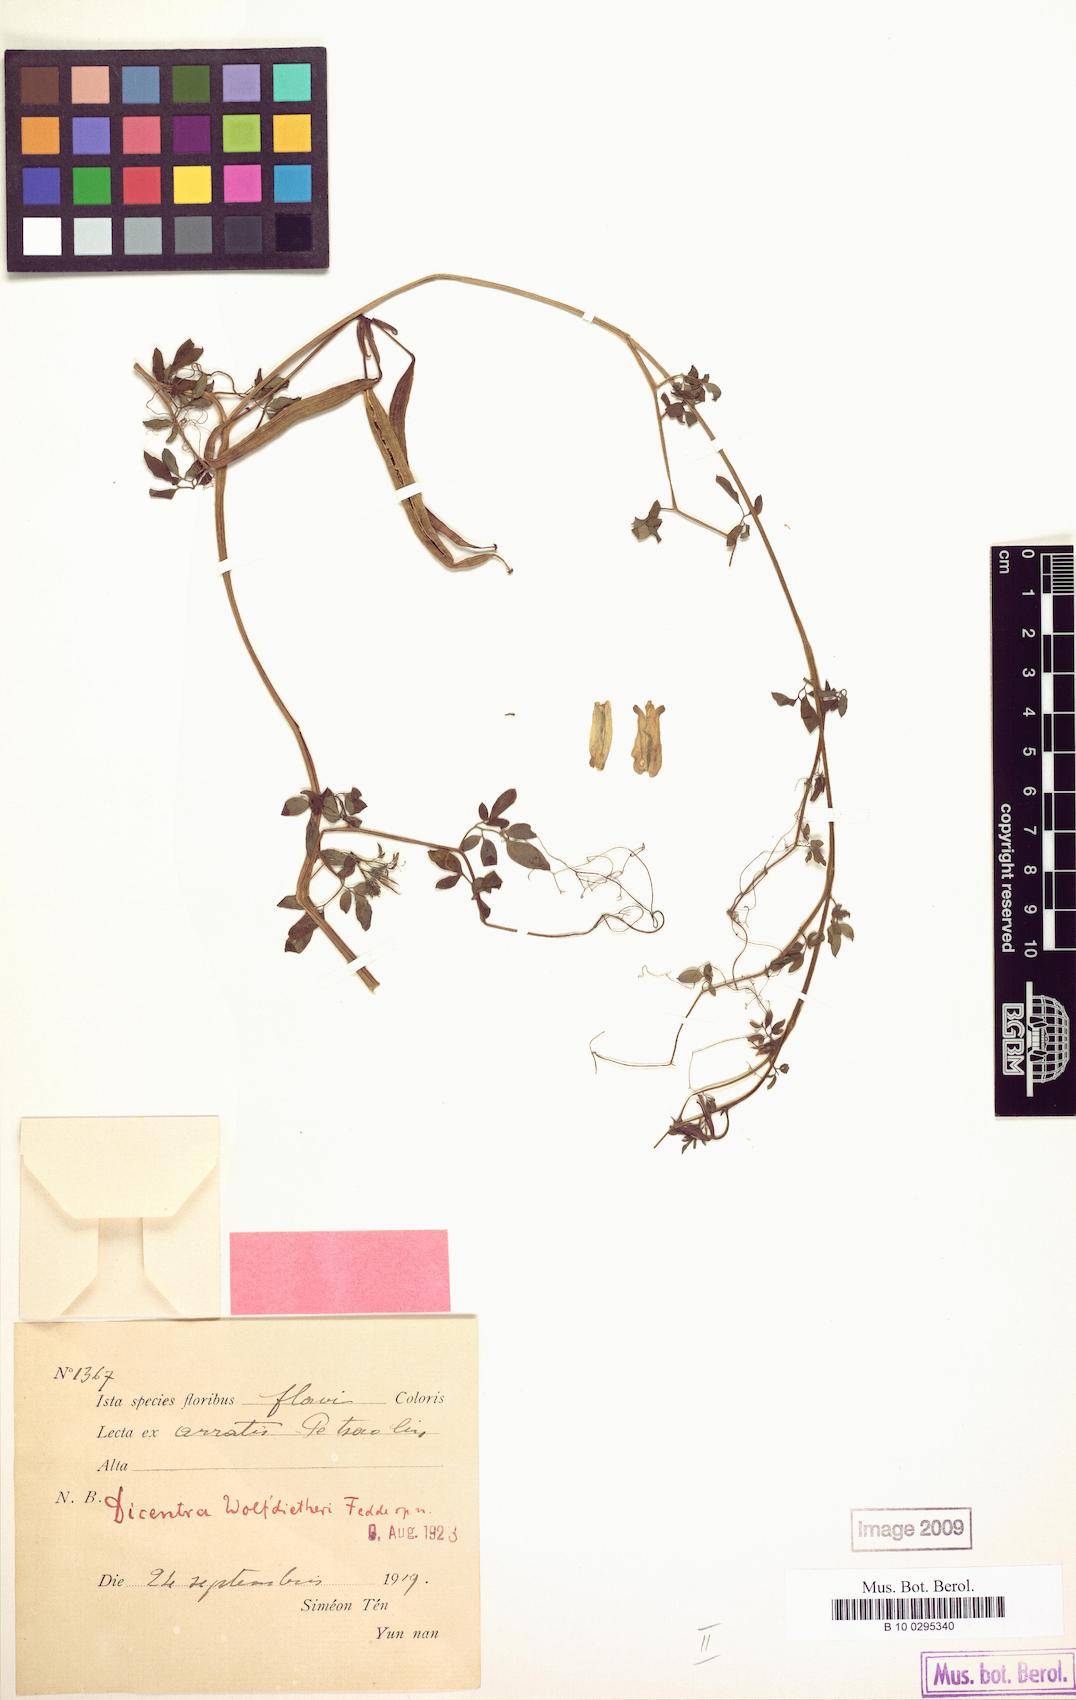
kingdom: Plantae
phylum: Tracheophyta
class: Magnoliopsida
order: Ranunculales
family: Papaveraceae
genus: Dactylicapnos
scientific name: Dactylicapnos roylei
